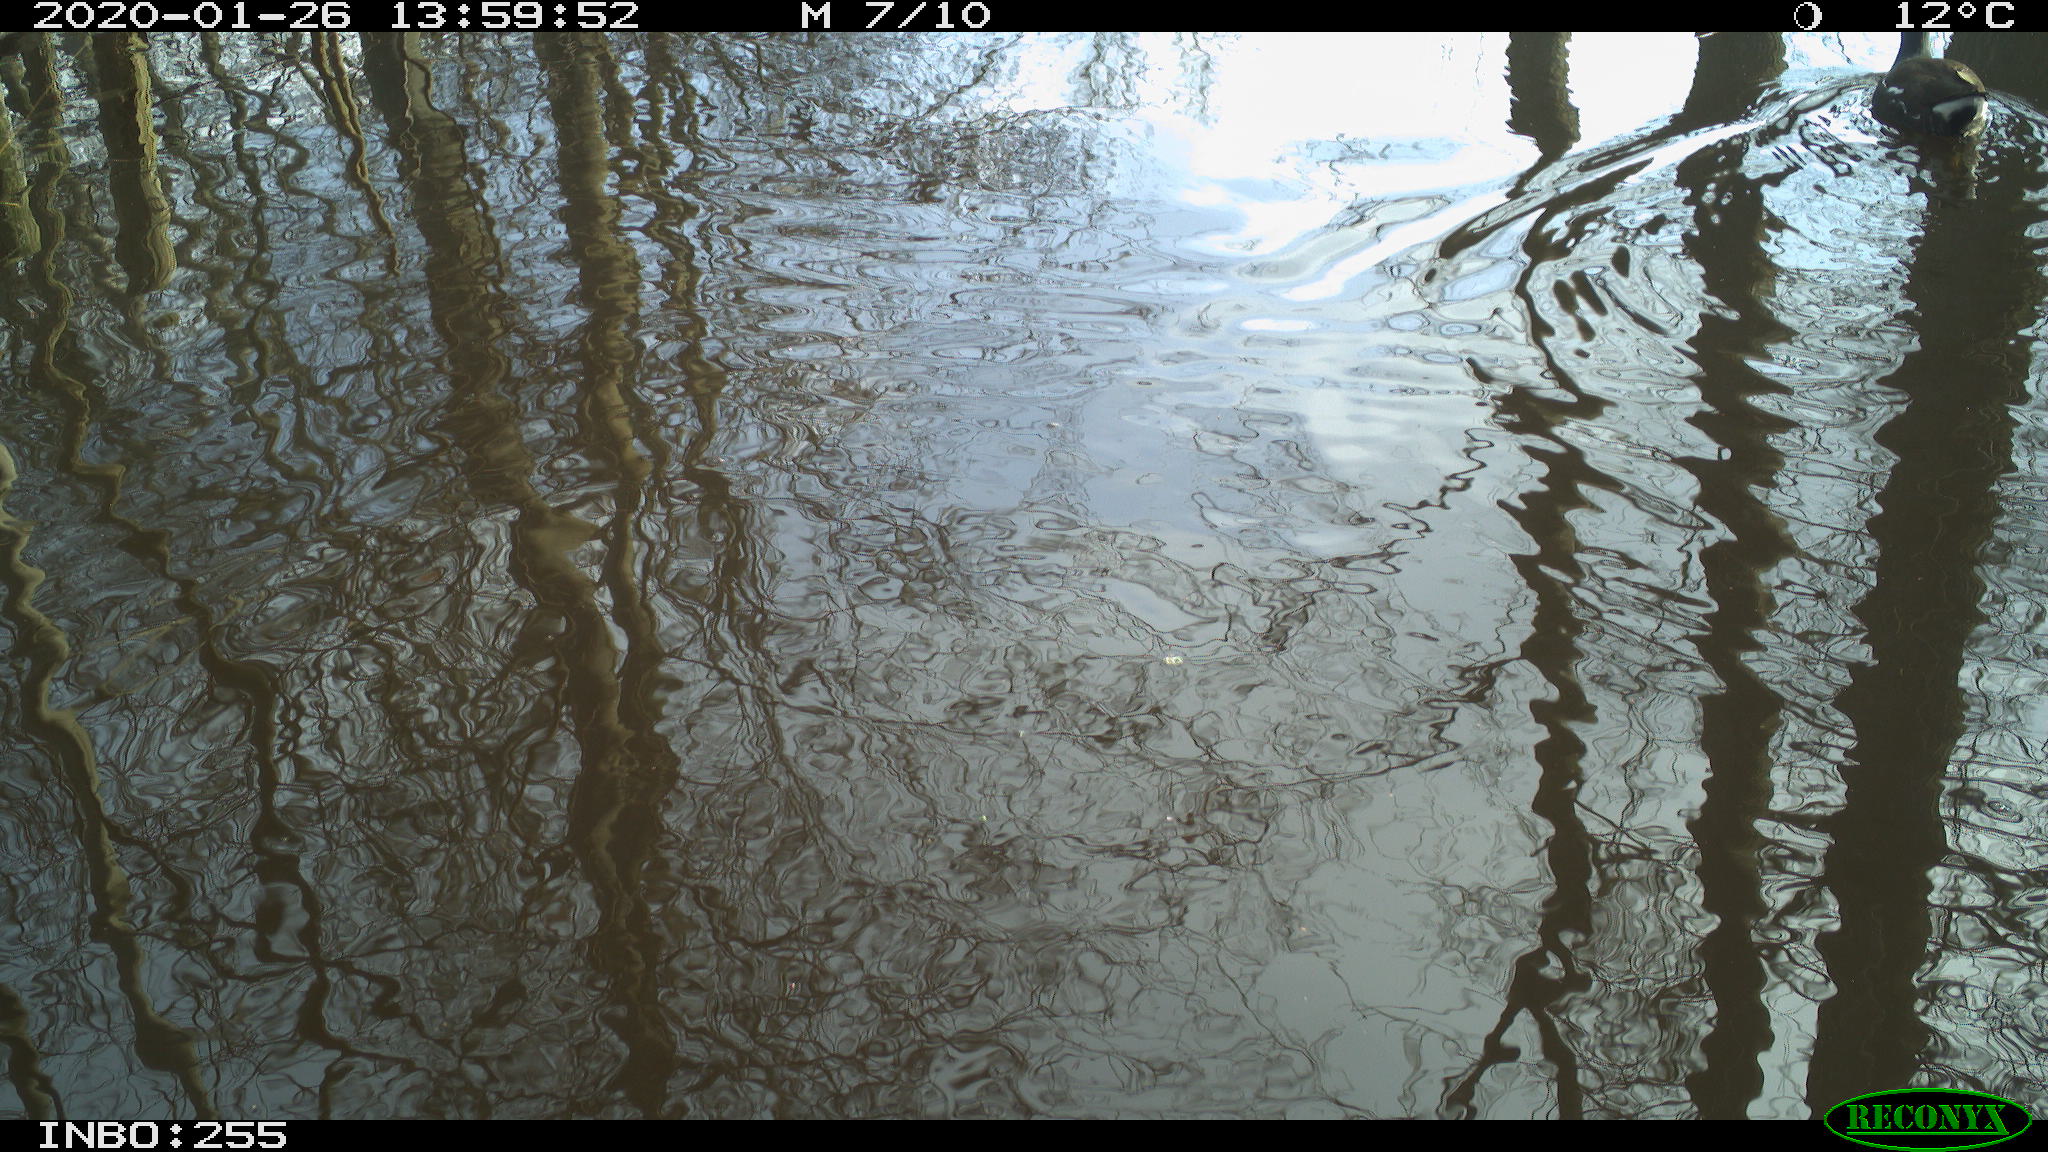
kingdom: Animalia
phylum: Chordata
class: Aves
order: Gruiformes
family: Rallidae
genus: Gallinula
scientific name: Gallinula chloropus
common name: Common moorhen
